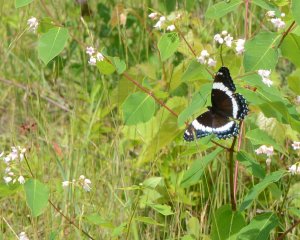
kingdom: Animalia
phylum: Arthropoda
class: Insecta
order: Lepidoptera
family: Nymphalidae
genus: Limenitis
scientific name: Limenitis arthemis
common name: Red-spotted Admiral
